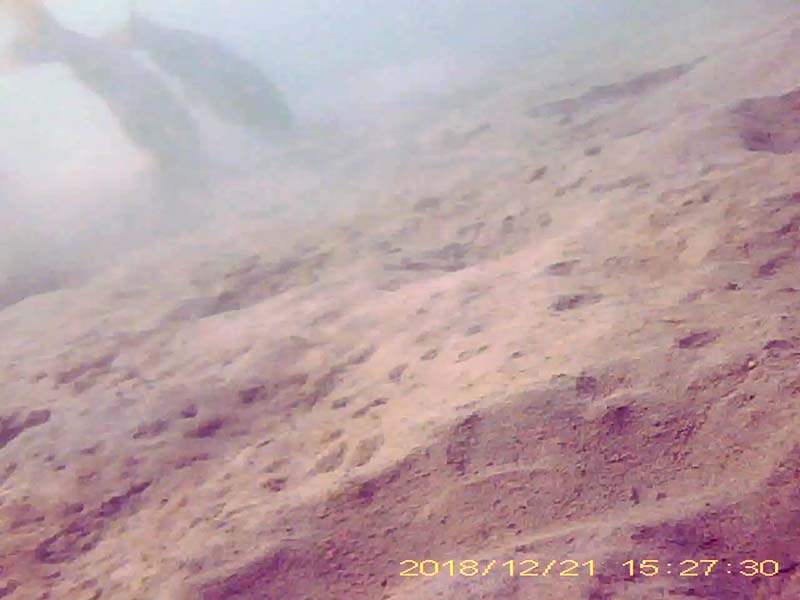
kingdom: Animalia
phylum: Chordata
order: Cypriniformes
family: Cyprinidae
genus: Cyprinus
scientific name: Cyprinus carpio
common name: コイ
